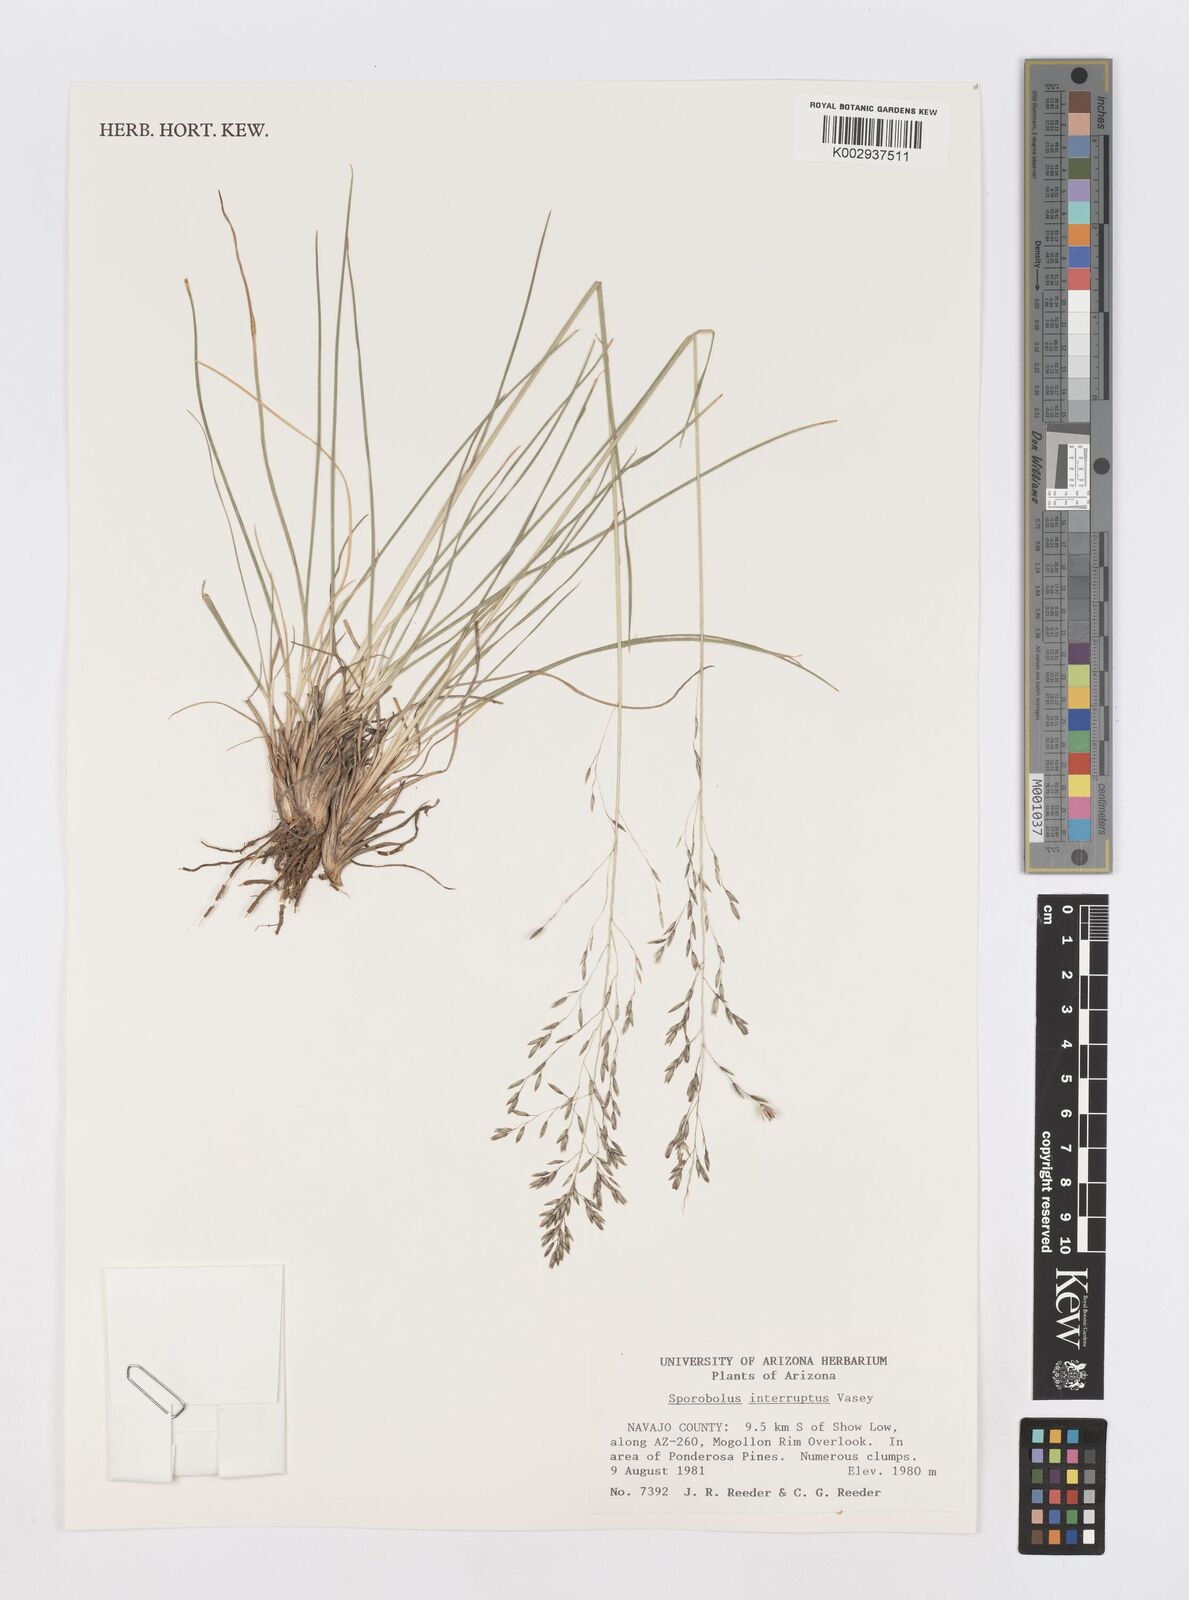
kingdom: Plantae
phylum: Tracheophyta
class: Liliopsida
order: Poales
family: Poaceae
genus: Sporobolus
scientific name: Sporobolus interruptus
